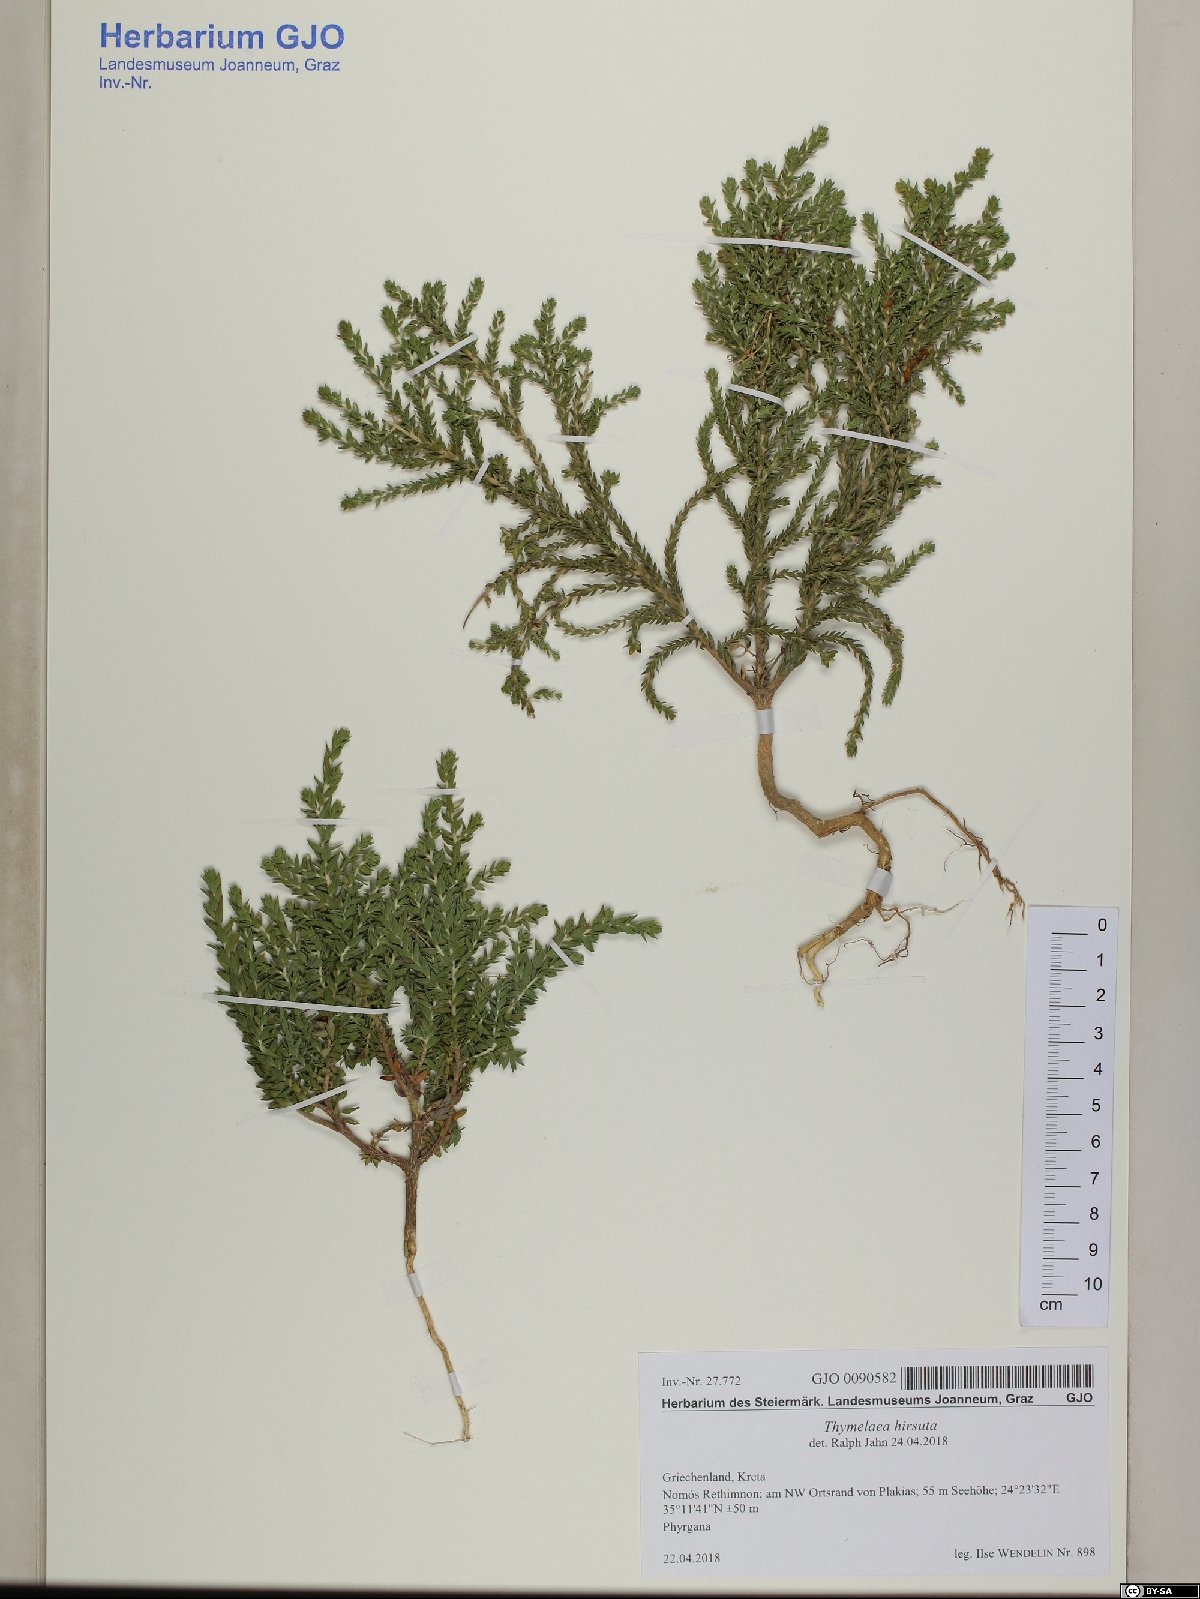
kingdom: Plantae
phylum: Tracheophyta
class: Magnoliopsida
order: Malvales
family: Thymelaeaceae
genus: Thymelaea
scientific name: Thymelaea hirsuta
